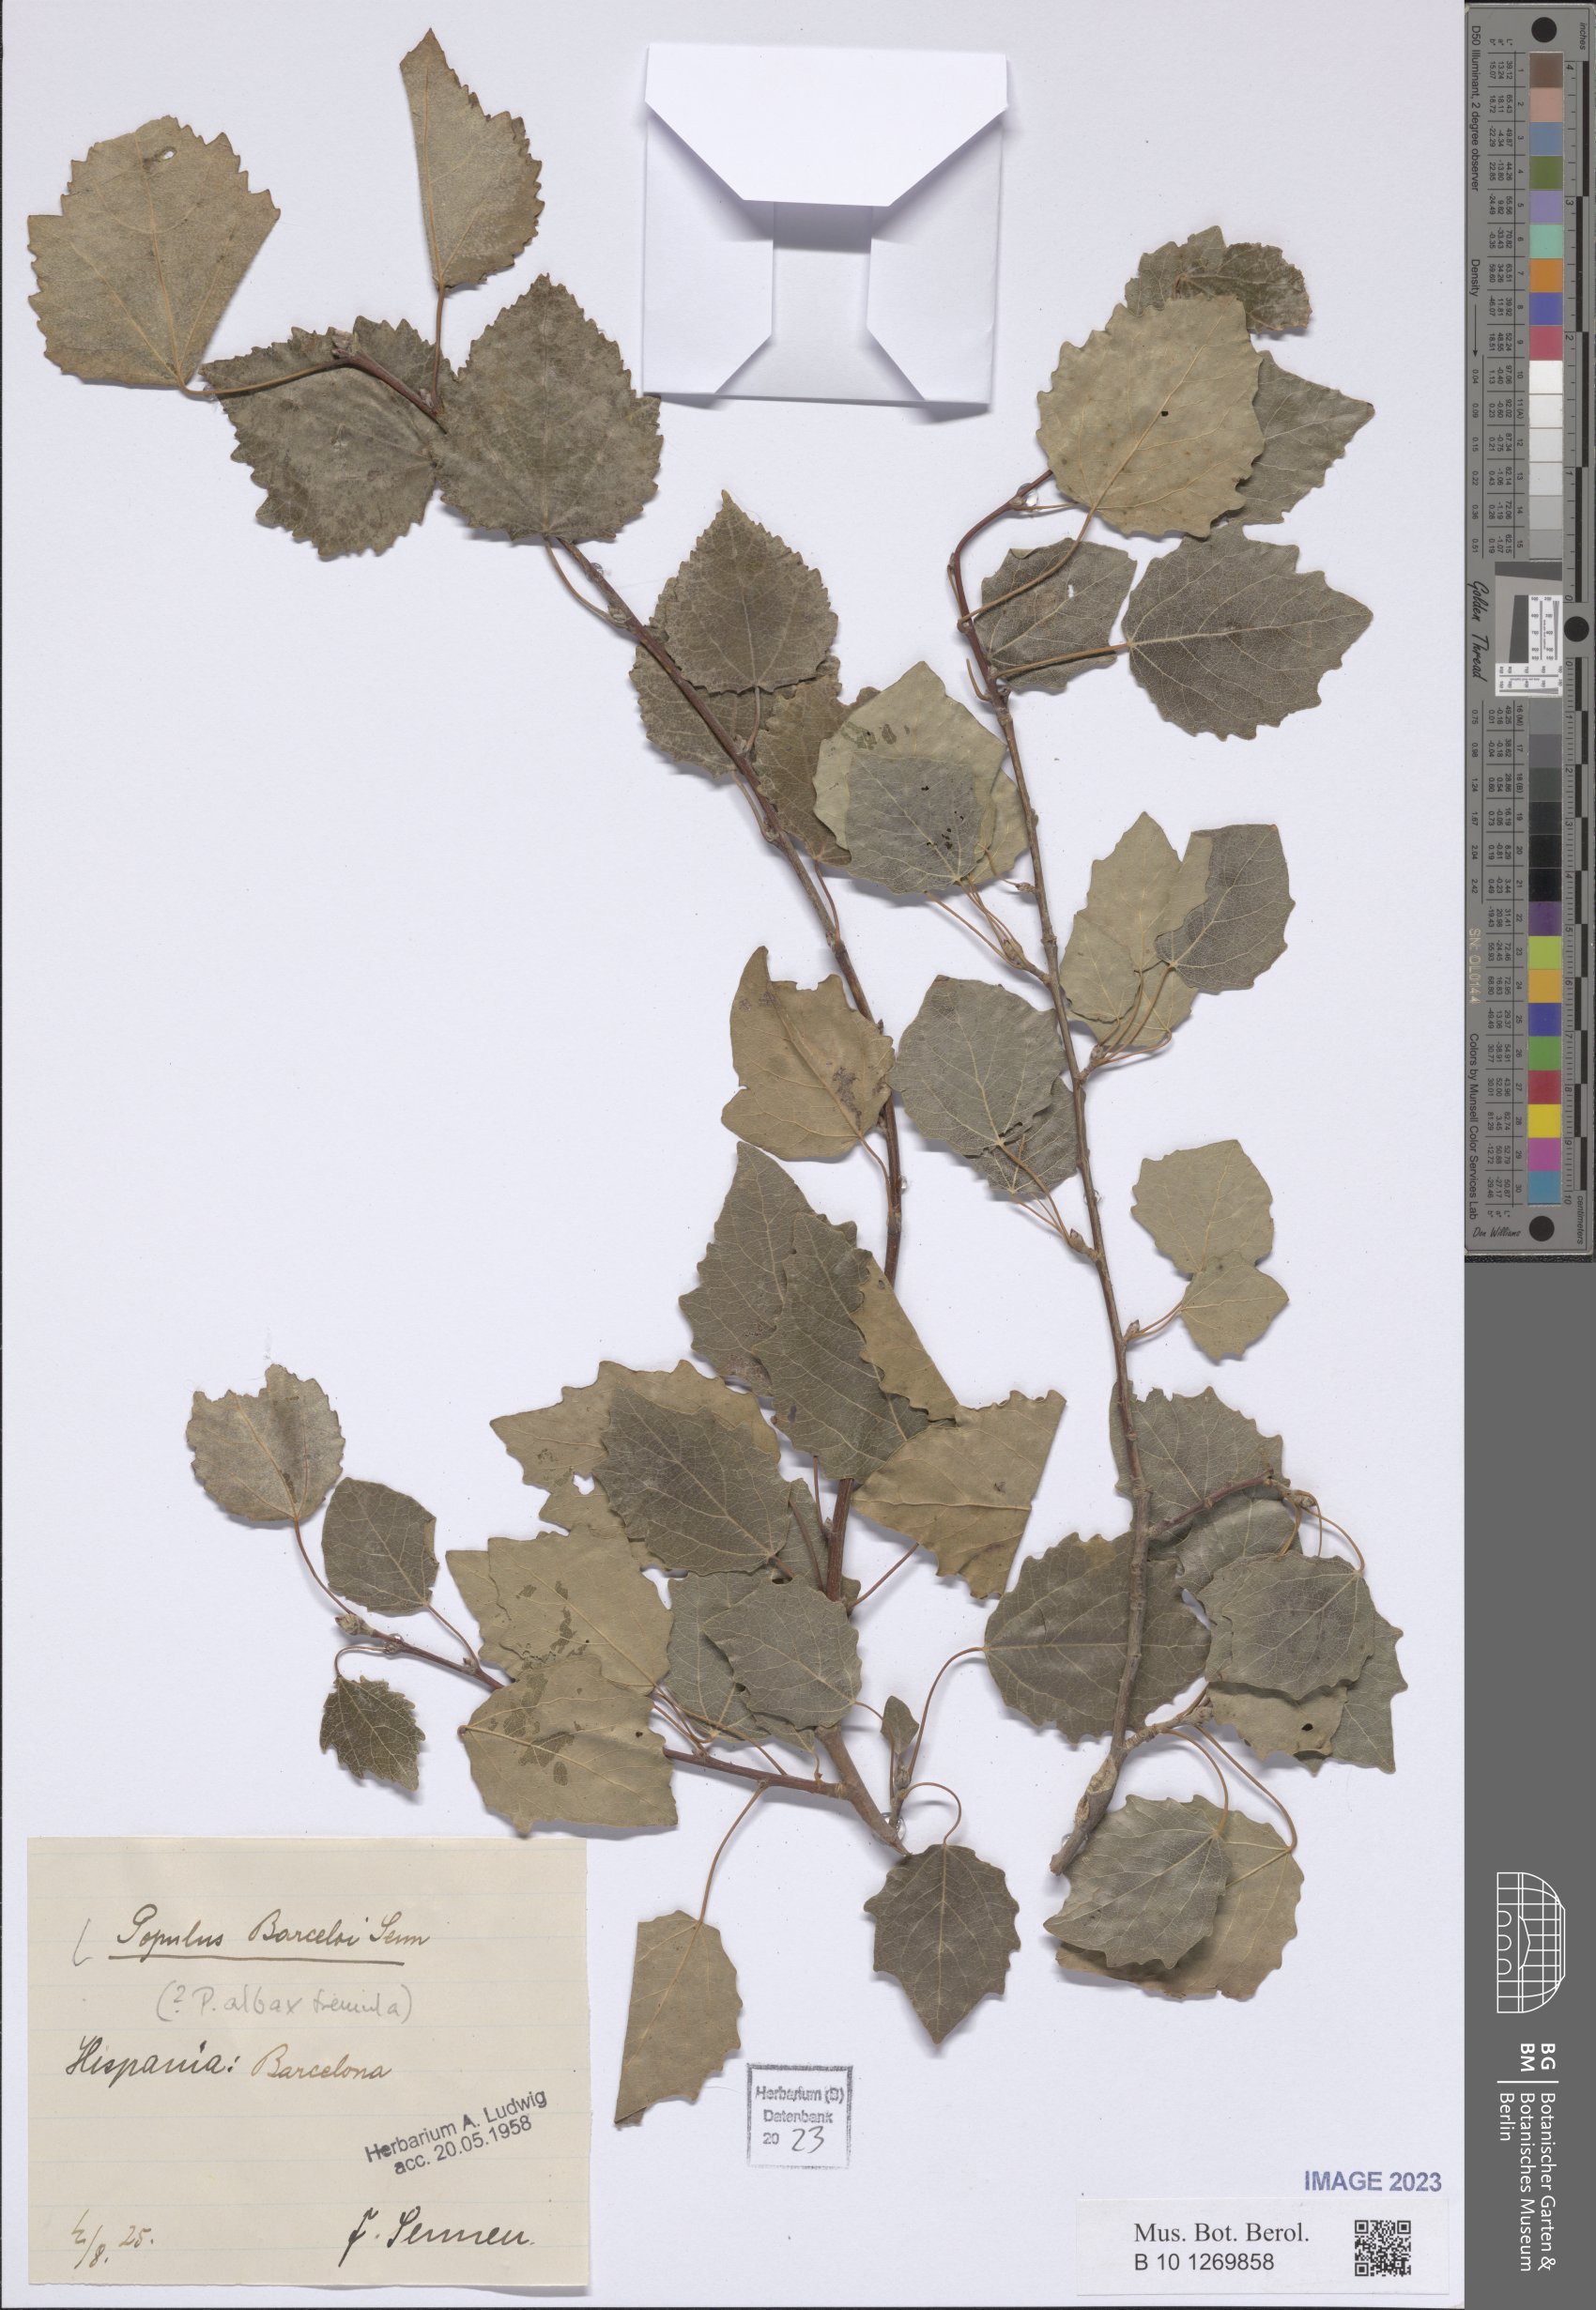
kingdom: Plantae
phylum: Tracheophyta
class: Magnoliopsida
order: Malpighiales
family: Salicaceae
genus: Populus
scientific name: Populus
